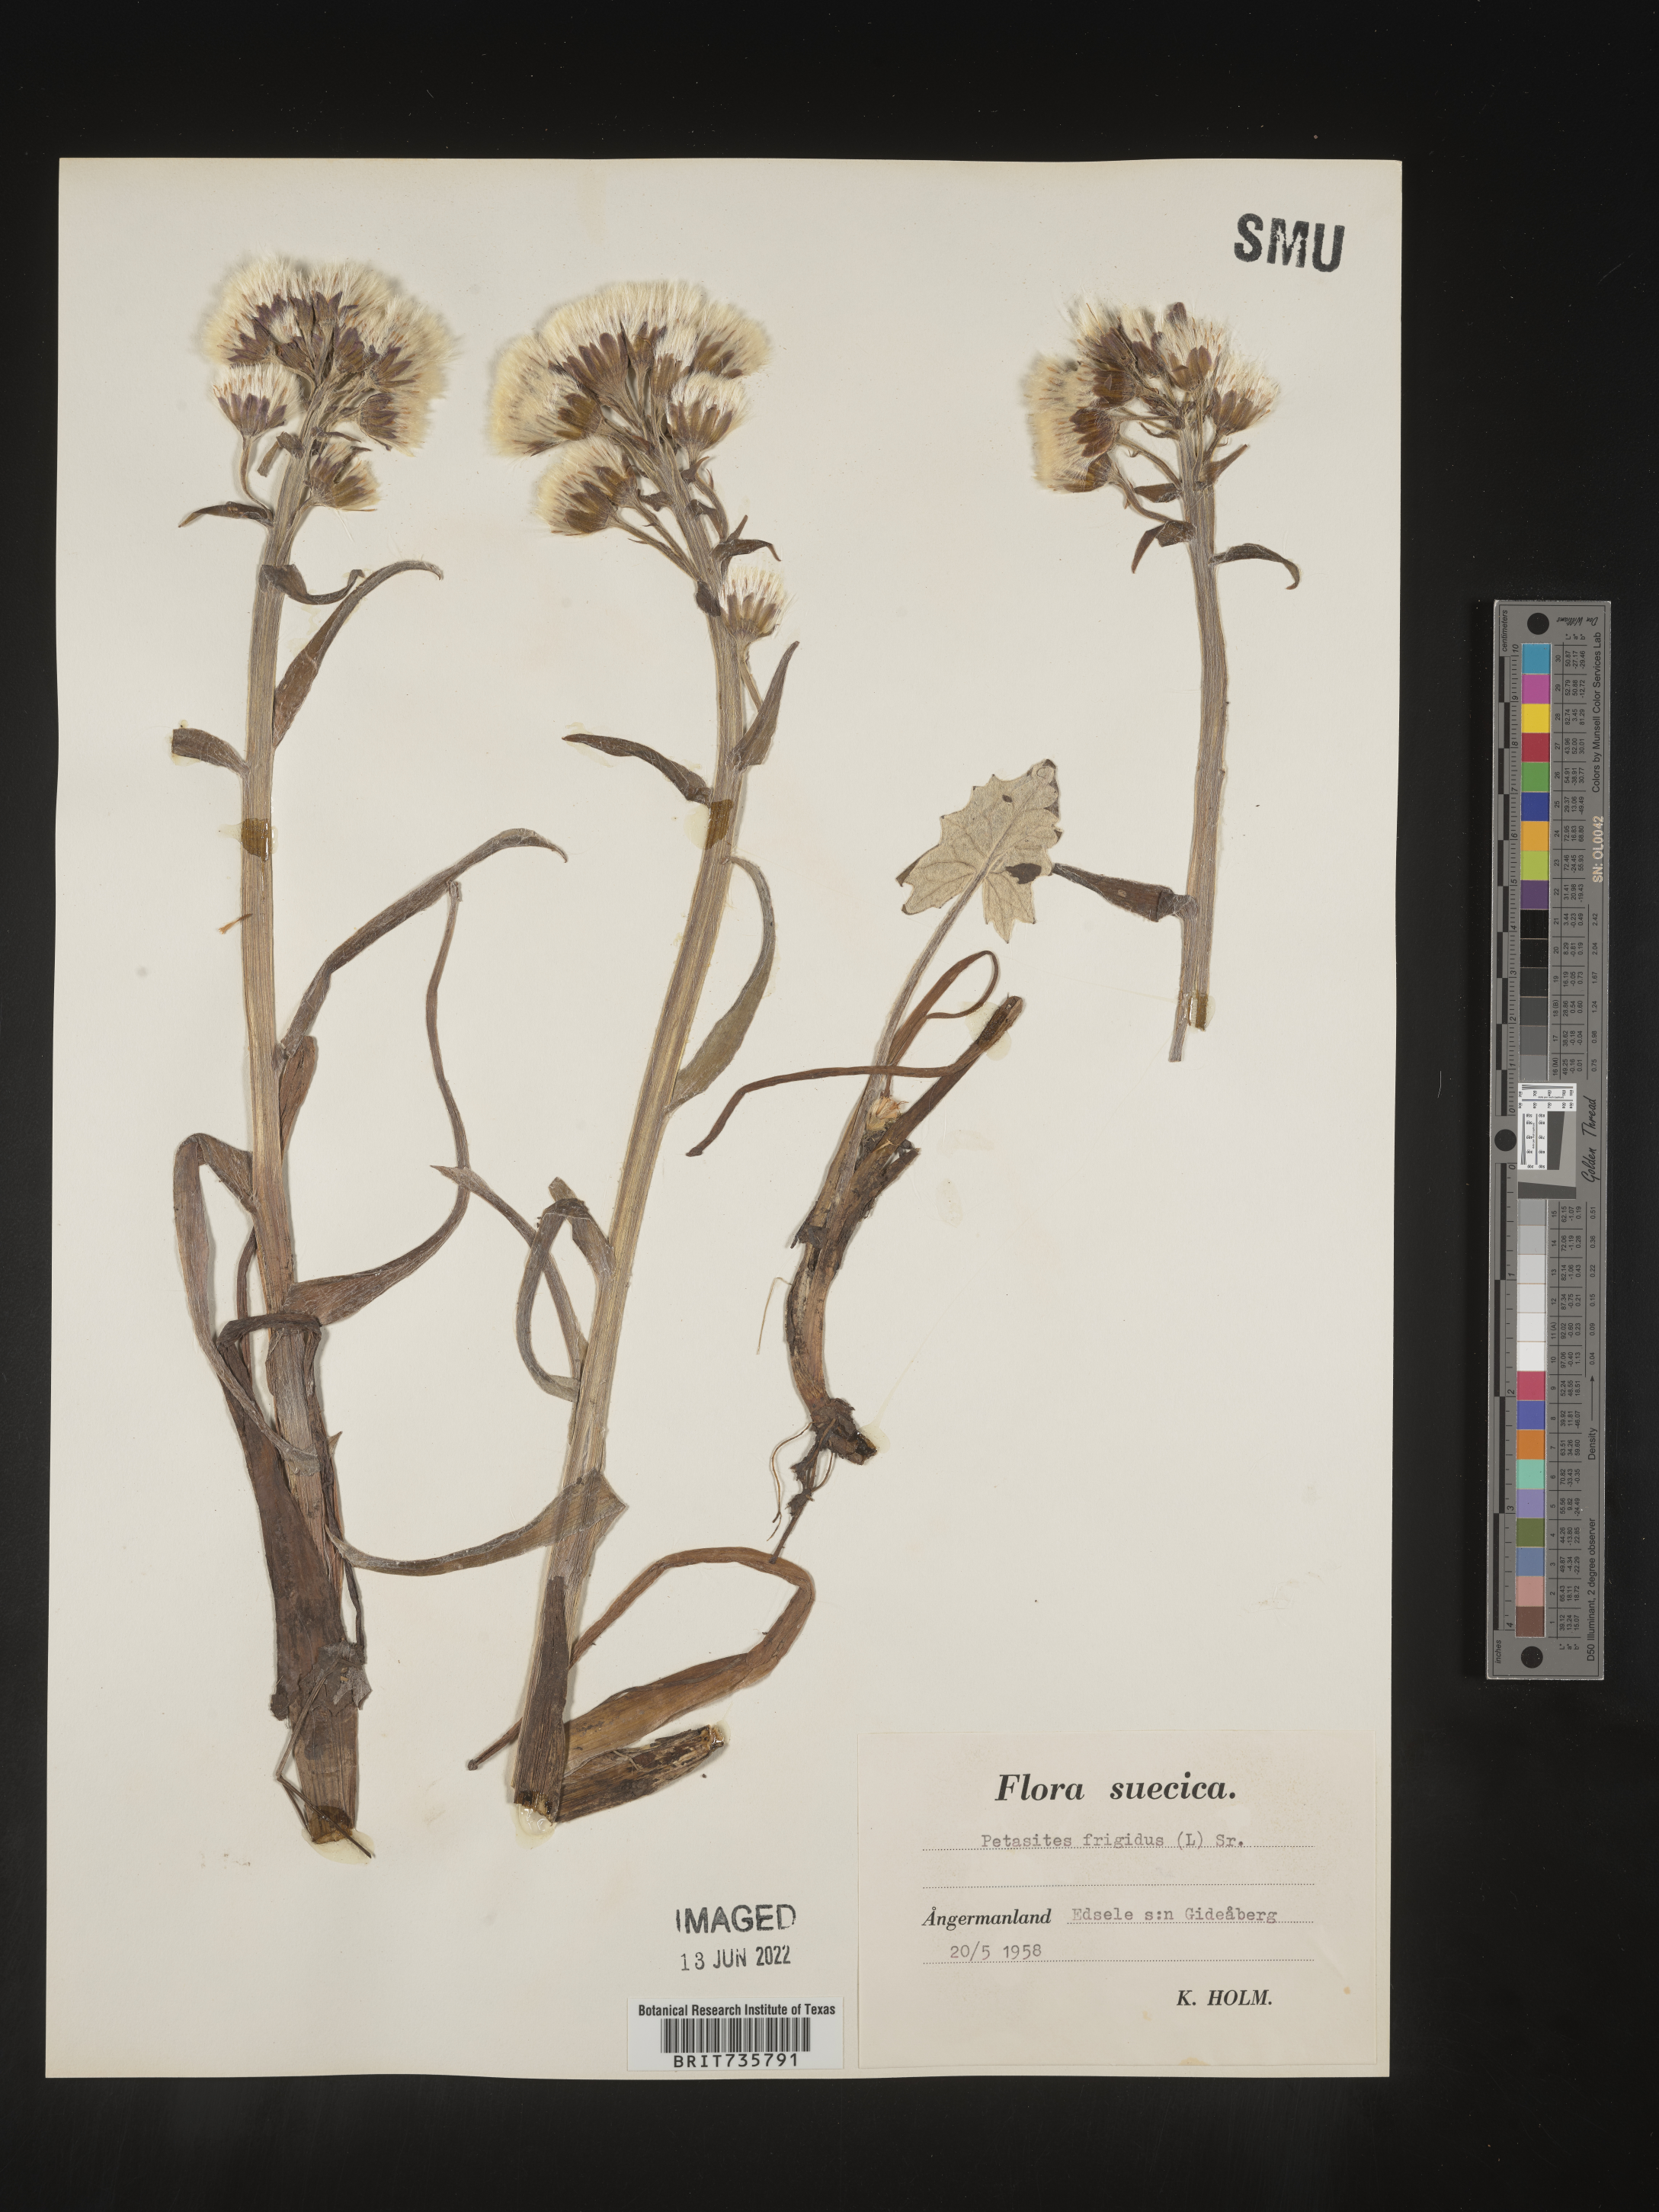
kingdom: Plantae
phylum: Tracheophyta
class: Magnoliopsida
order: Asterales
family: Asteraceae
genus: Petasites
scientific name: Petasites
